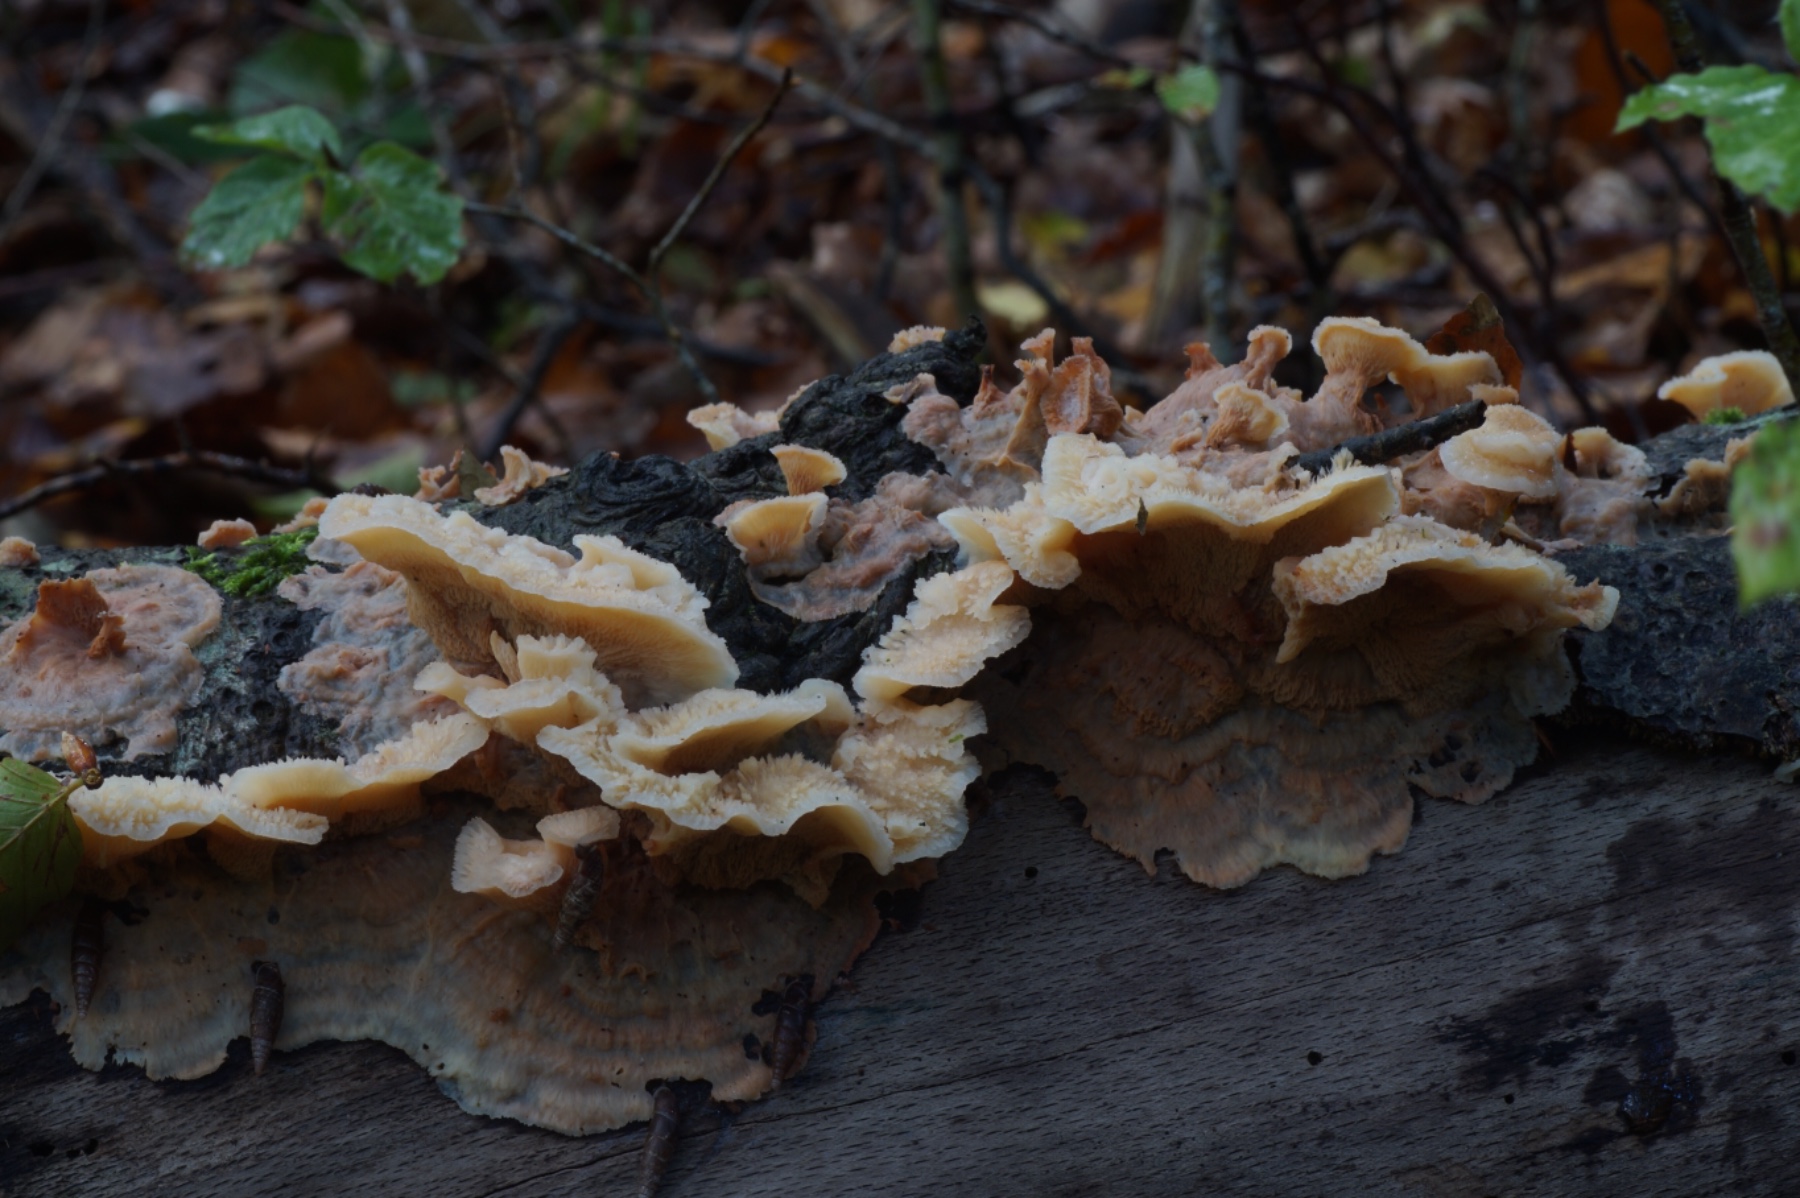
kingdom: Fungi
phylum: Basidiomycota
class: Agaricomycetes
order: Polyporales
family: Meruliaceae
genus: Phlebia
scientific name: Phlebia tremellosa
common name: bævrende åresvamp
